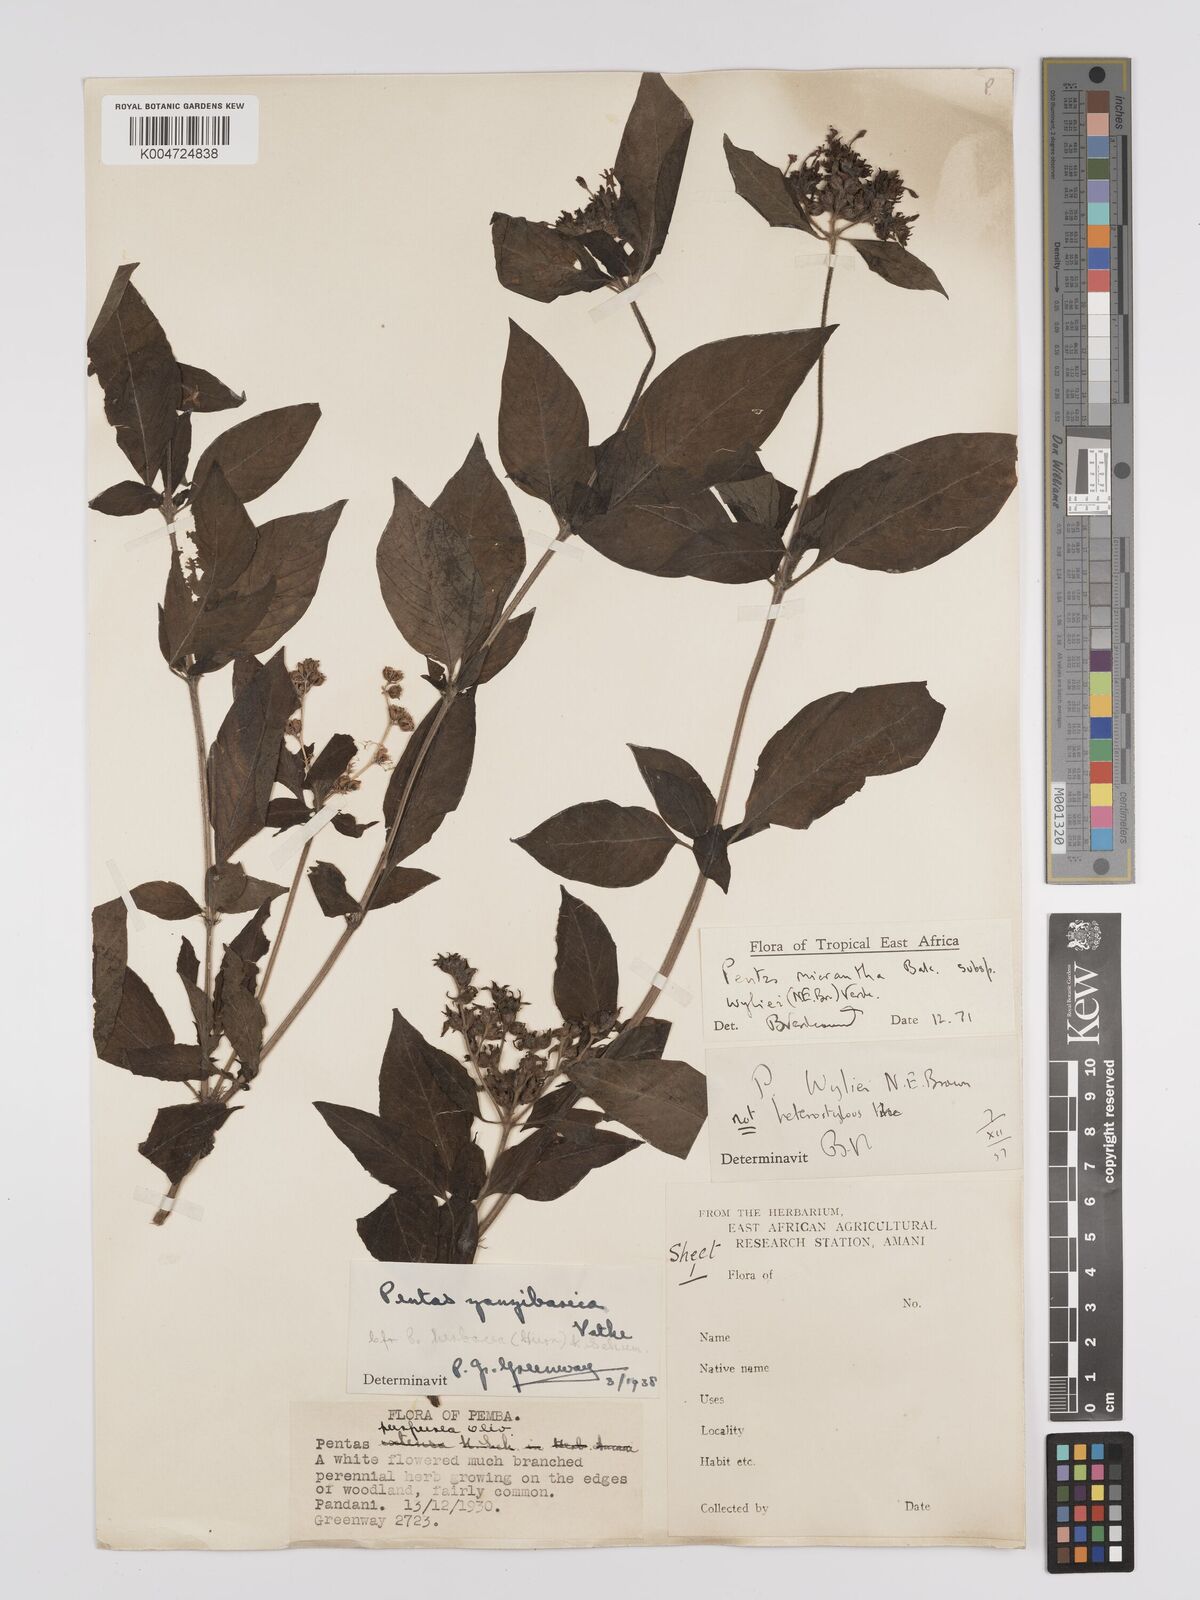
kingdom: Plantae
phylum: Tracheophyta
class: Magnoliopsida
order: Gentianales
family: Rubiaceae
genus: Pentas
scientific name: Pentas micrantha
